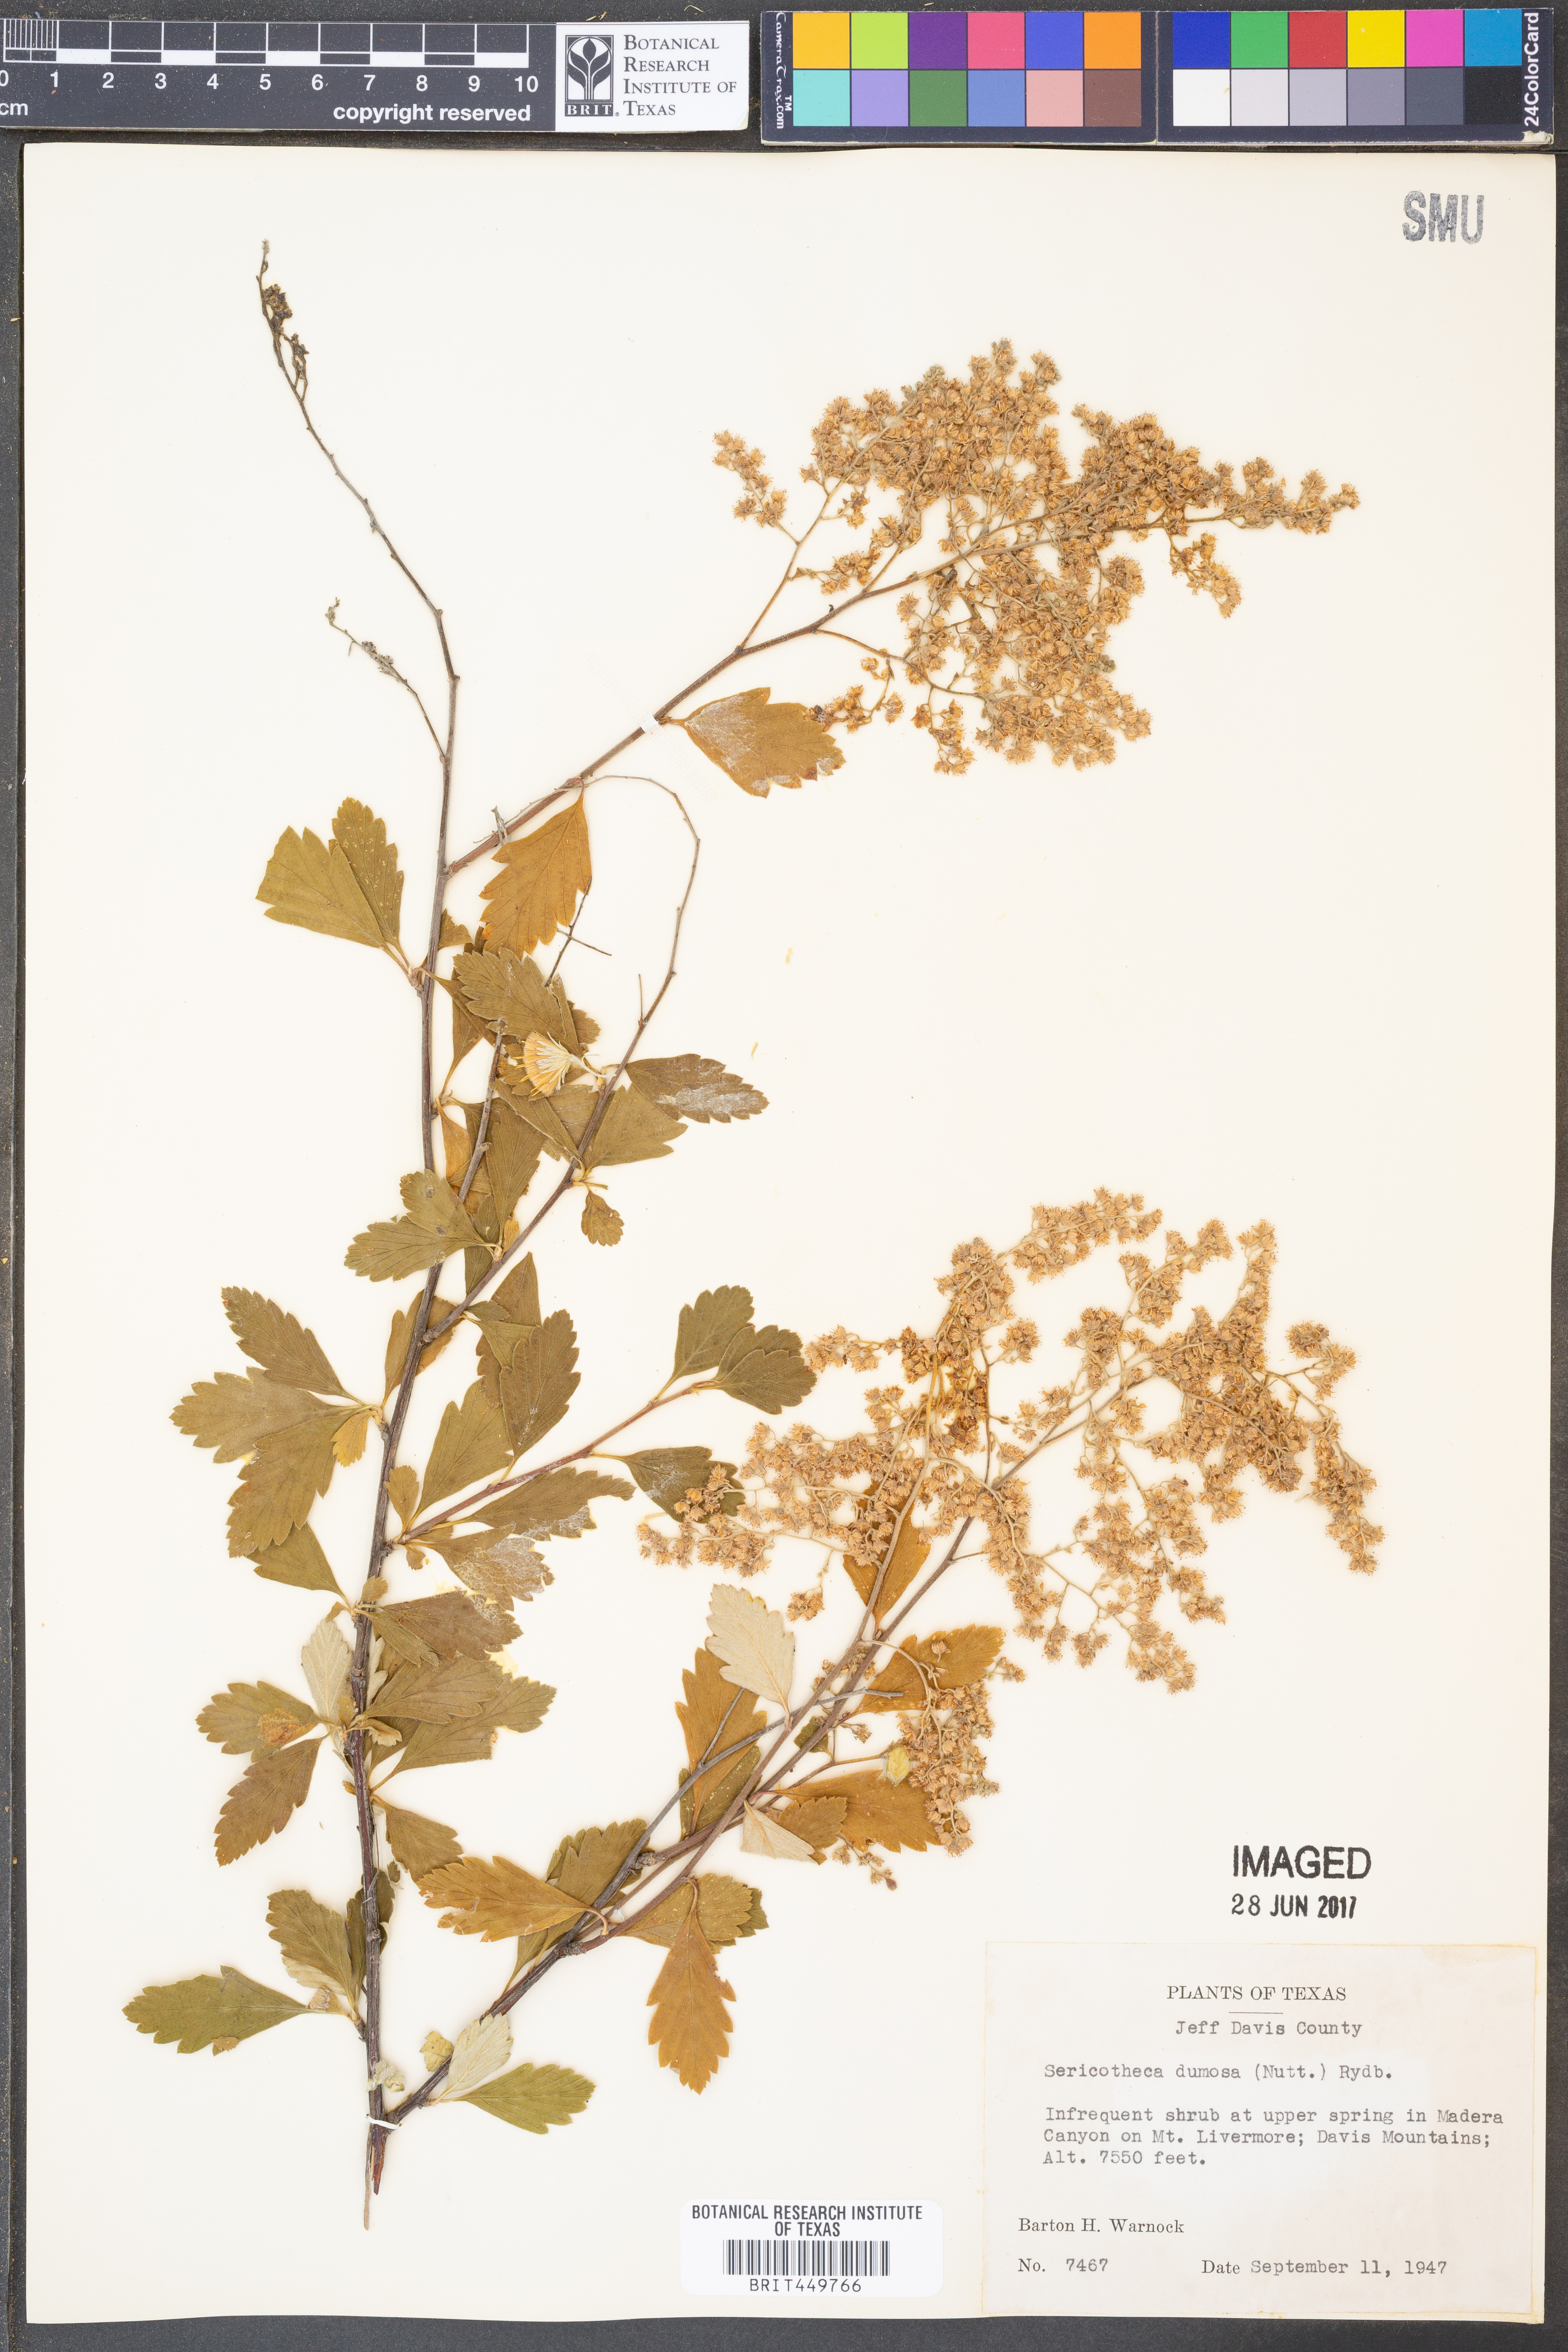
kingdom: Plantae
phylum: Tracheophyta
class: Magnoliopsida
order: Rosales
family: Rosaceae
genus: Holodiscus
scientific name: Holodiscus australis
